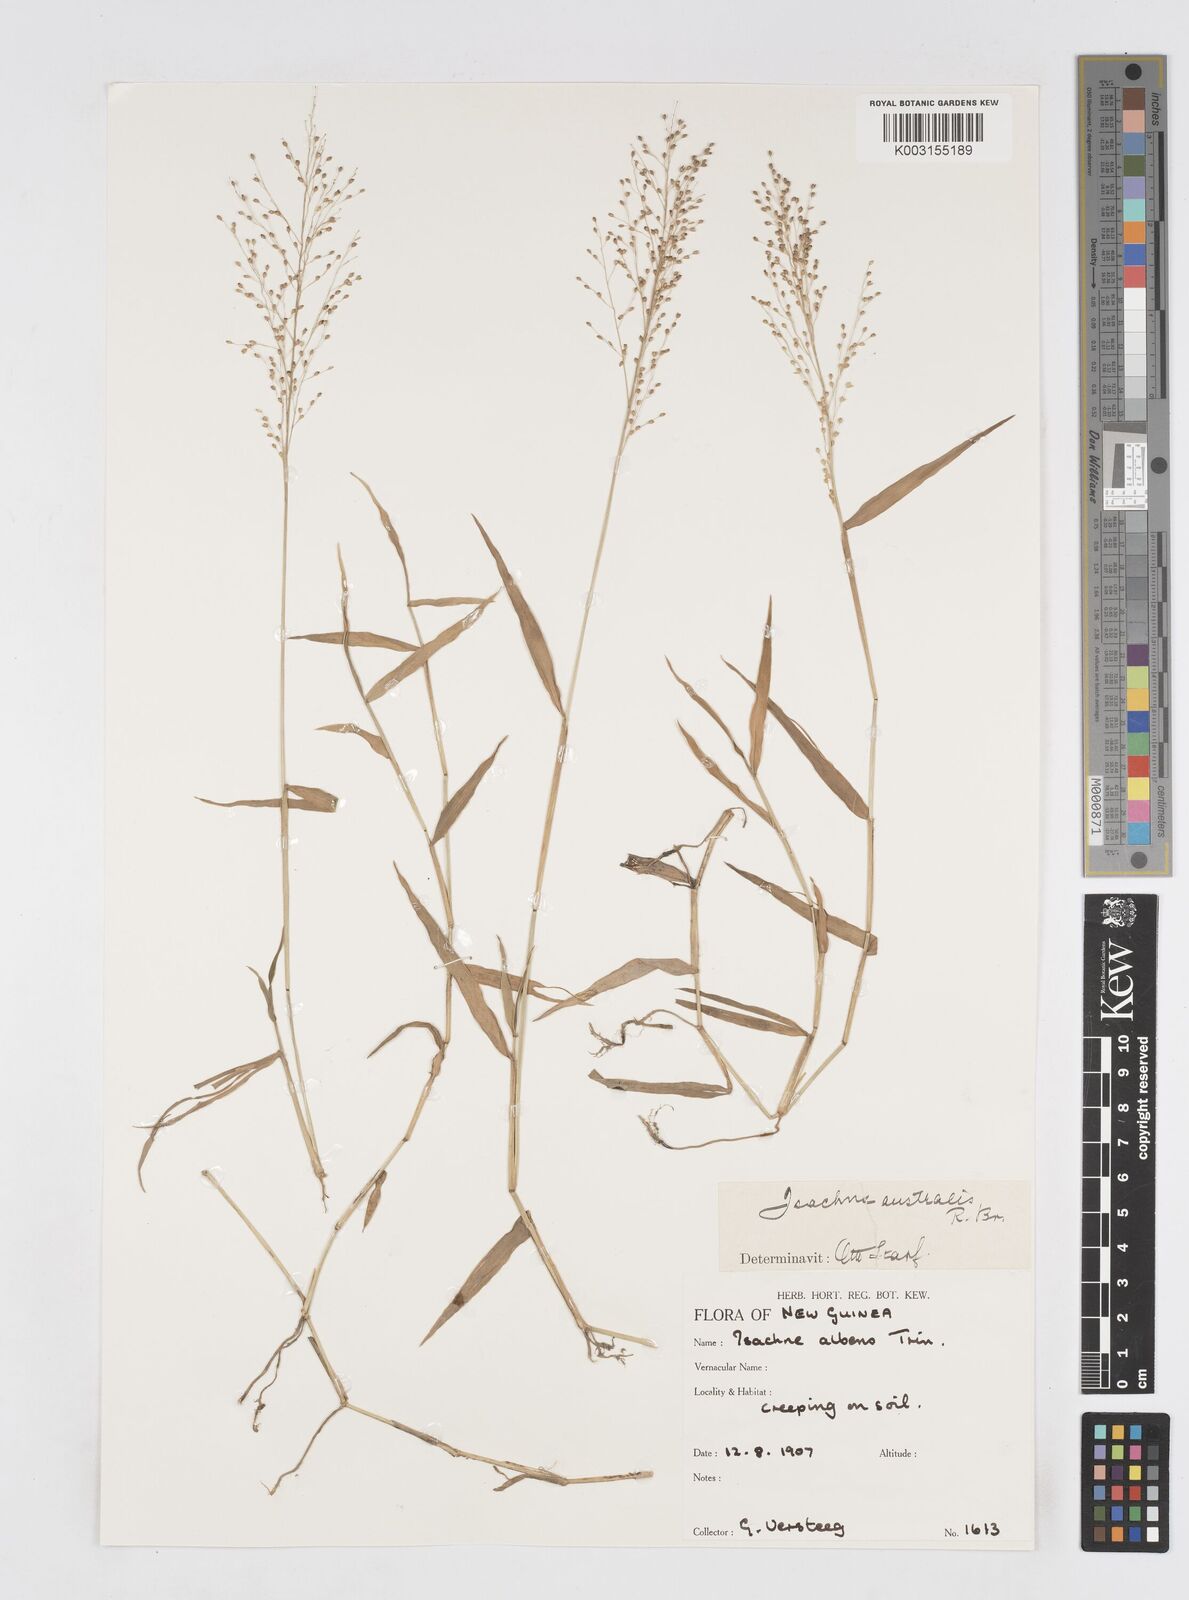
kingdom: Plantae
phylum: Tracheophyta
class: Liliopsida
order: Poales
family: Poaceae
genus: Isachne
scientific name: Isachne albens
